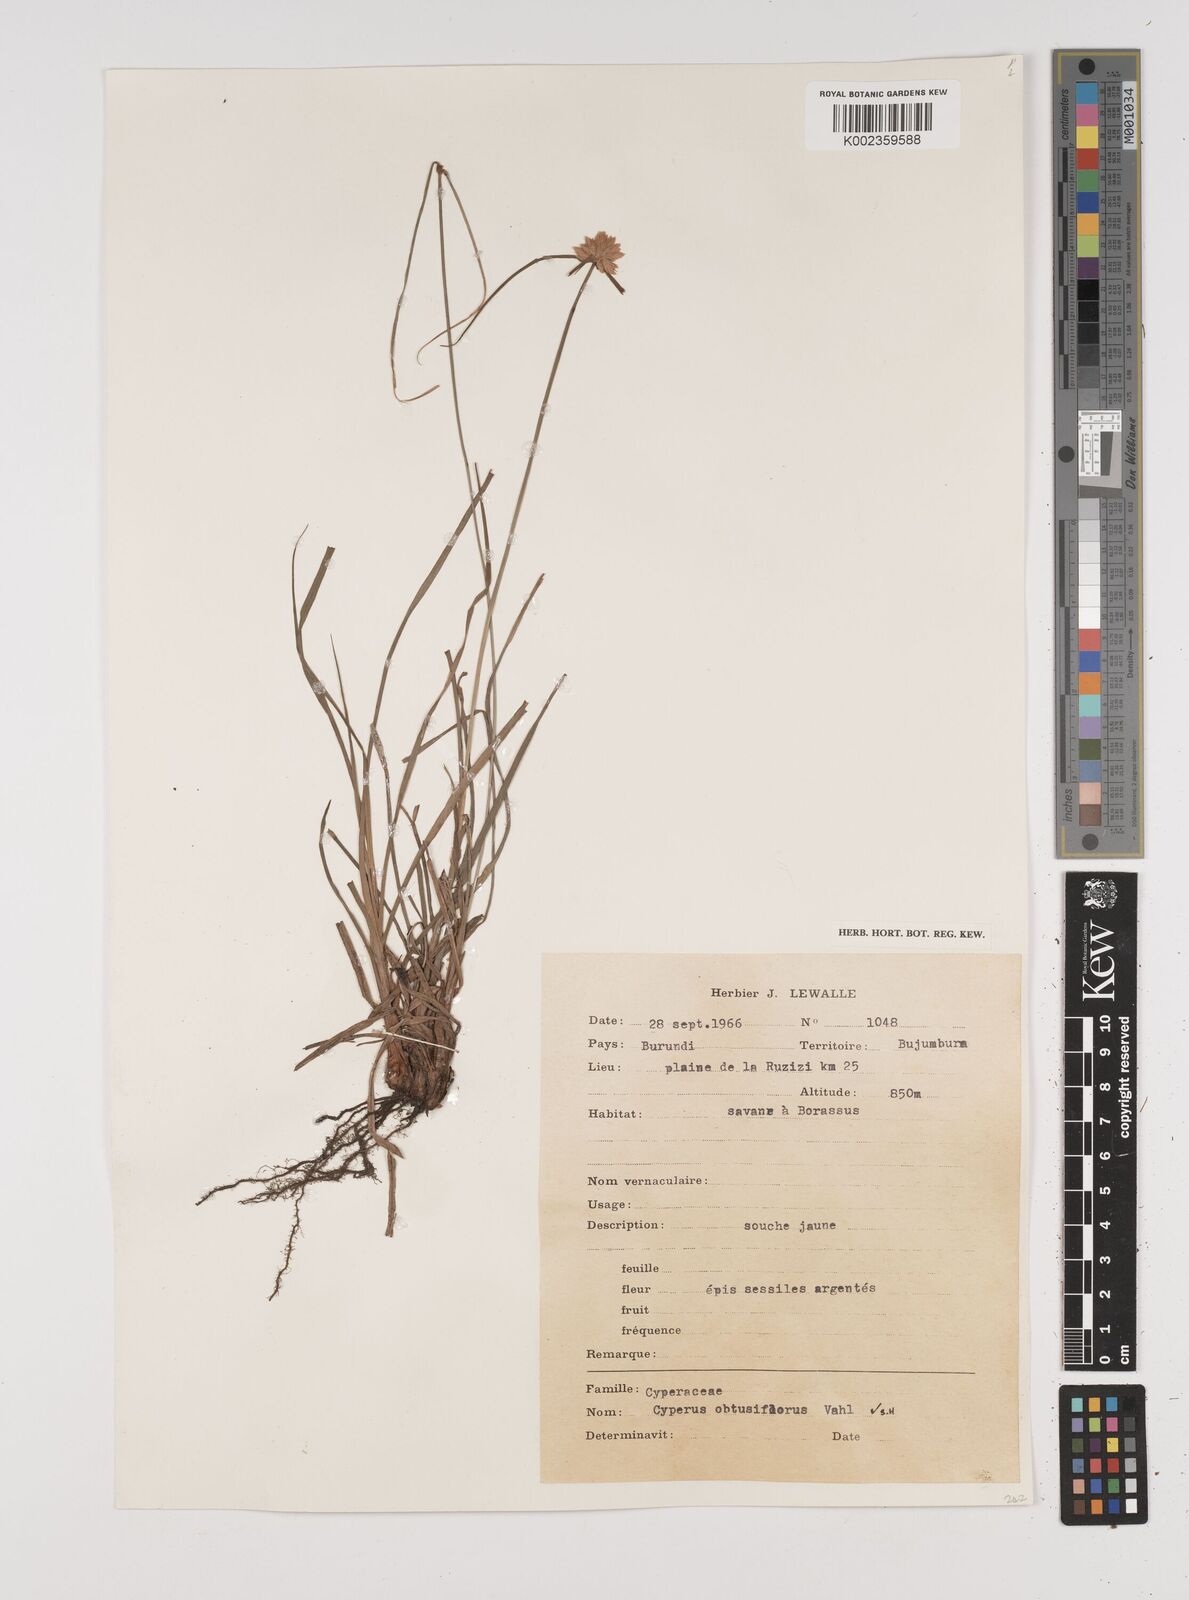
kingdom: Plantae
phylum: Tracheophyta
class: Liliopsida
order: Poales
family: Cyperaceae
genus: Cyperus
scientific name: Cyperus niveus
